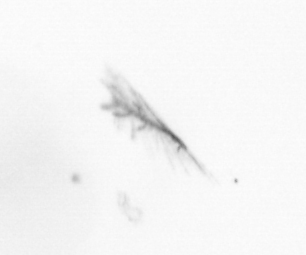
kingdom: Chromista
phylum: Ochrophyta
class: Bacillariophyceae
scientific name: Bacillariophyceae
